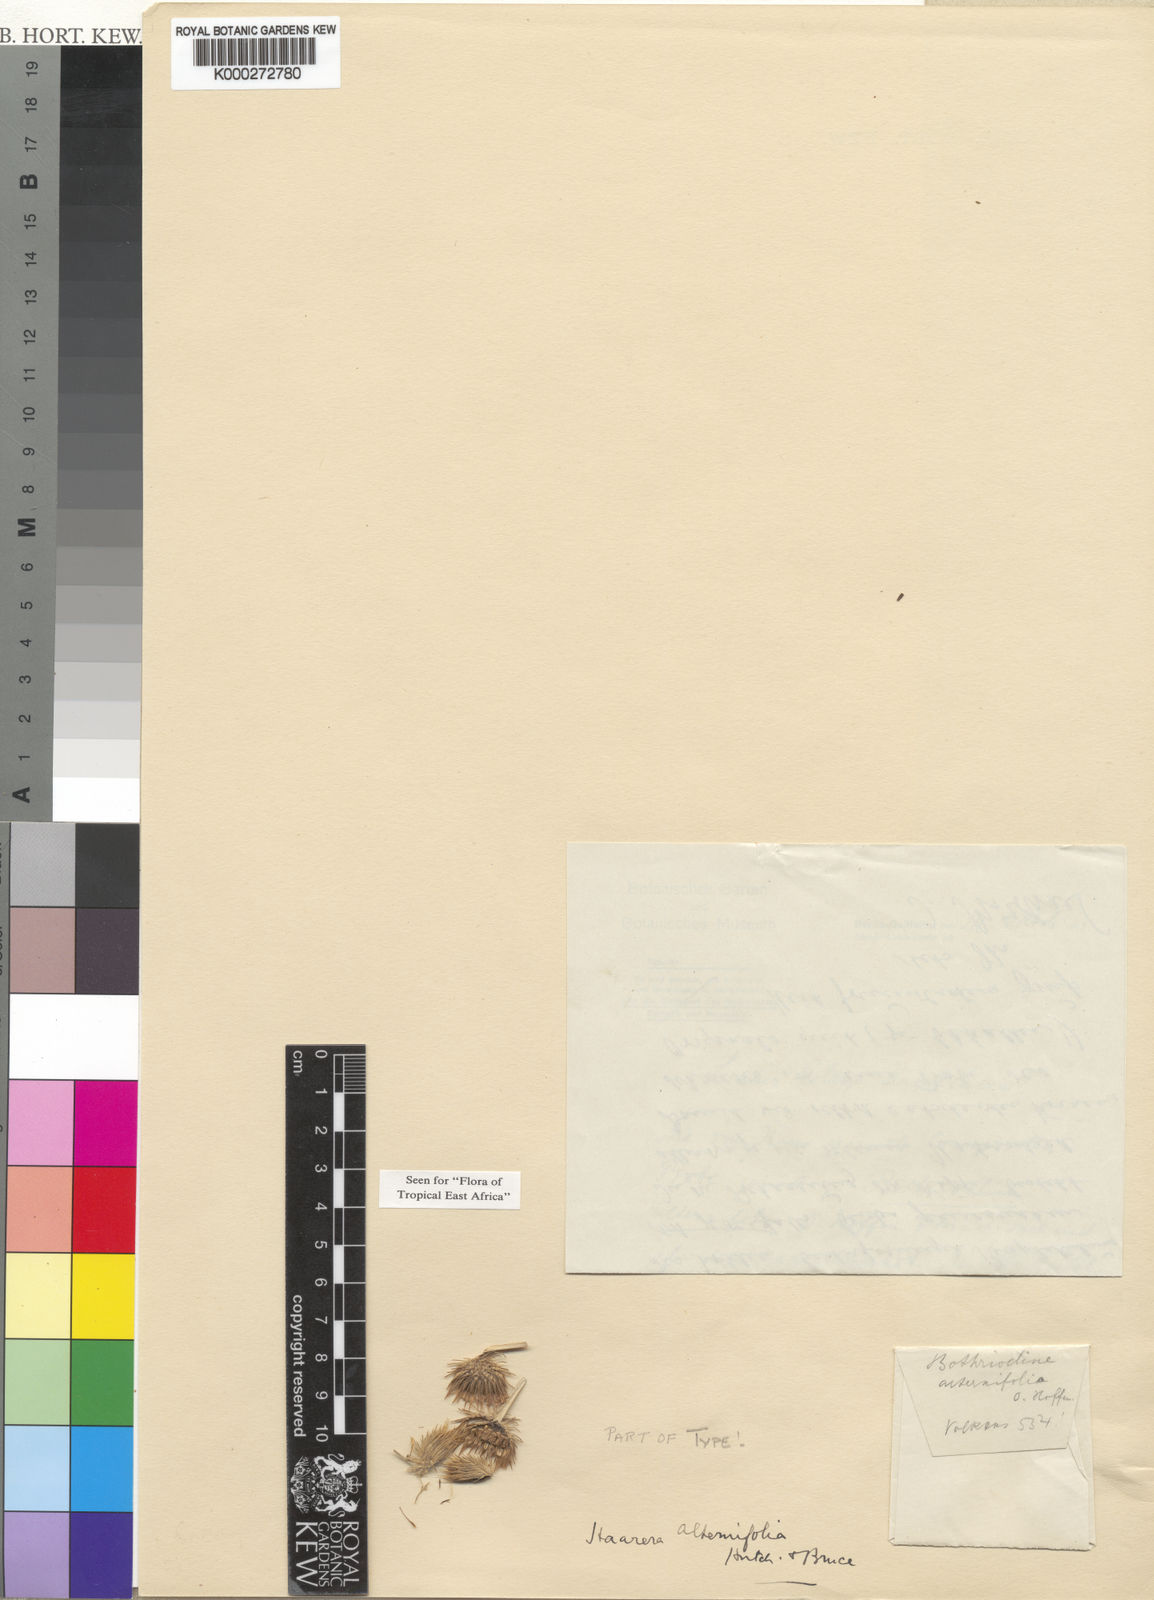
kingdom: Plantae
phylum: Tracheophyta
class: Magnoliopsida
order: Asterales
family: Asteraceae
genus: Erlangea
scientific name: Erlangea alternifolia
